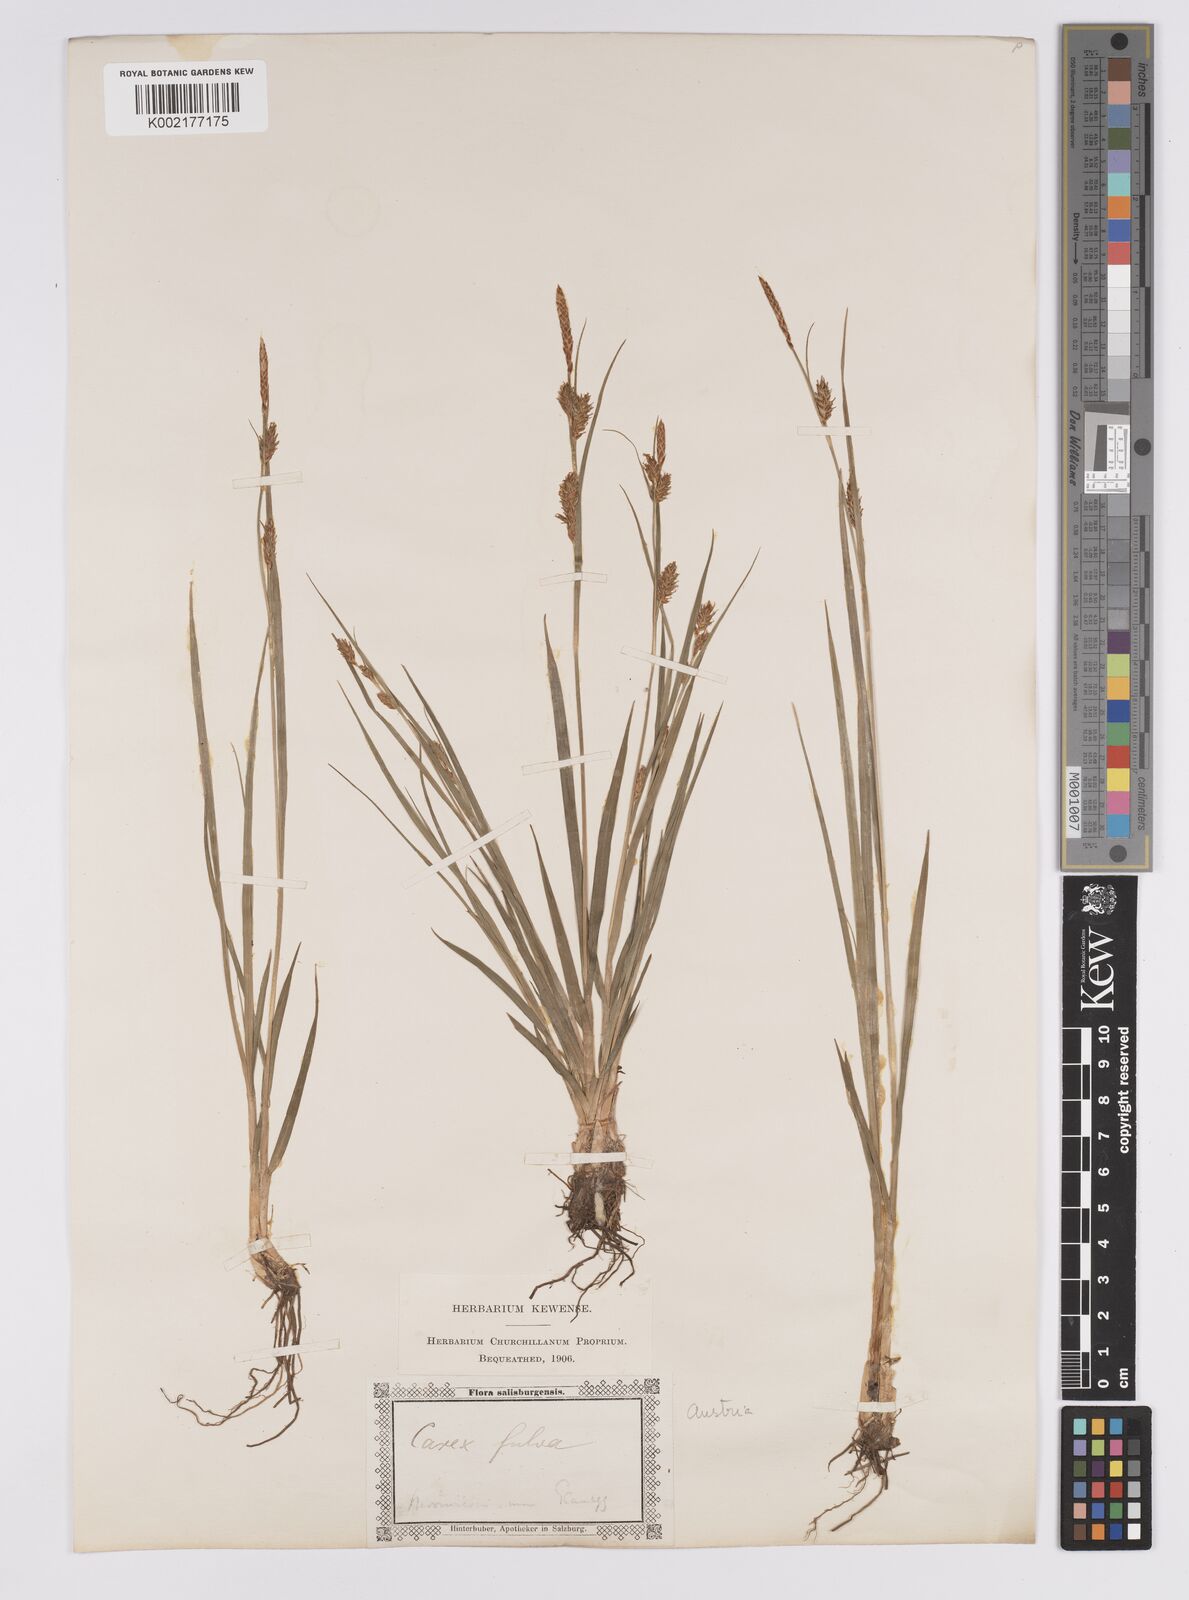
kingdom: Plantae
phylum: Tracheophyta
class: Liliopsida
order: Poales
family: Cyperaceae
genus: Carex
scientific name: Carex hostiana
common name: Tawny sedge
